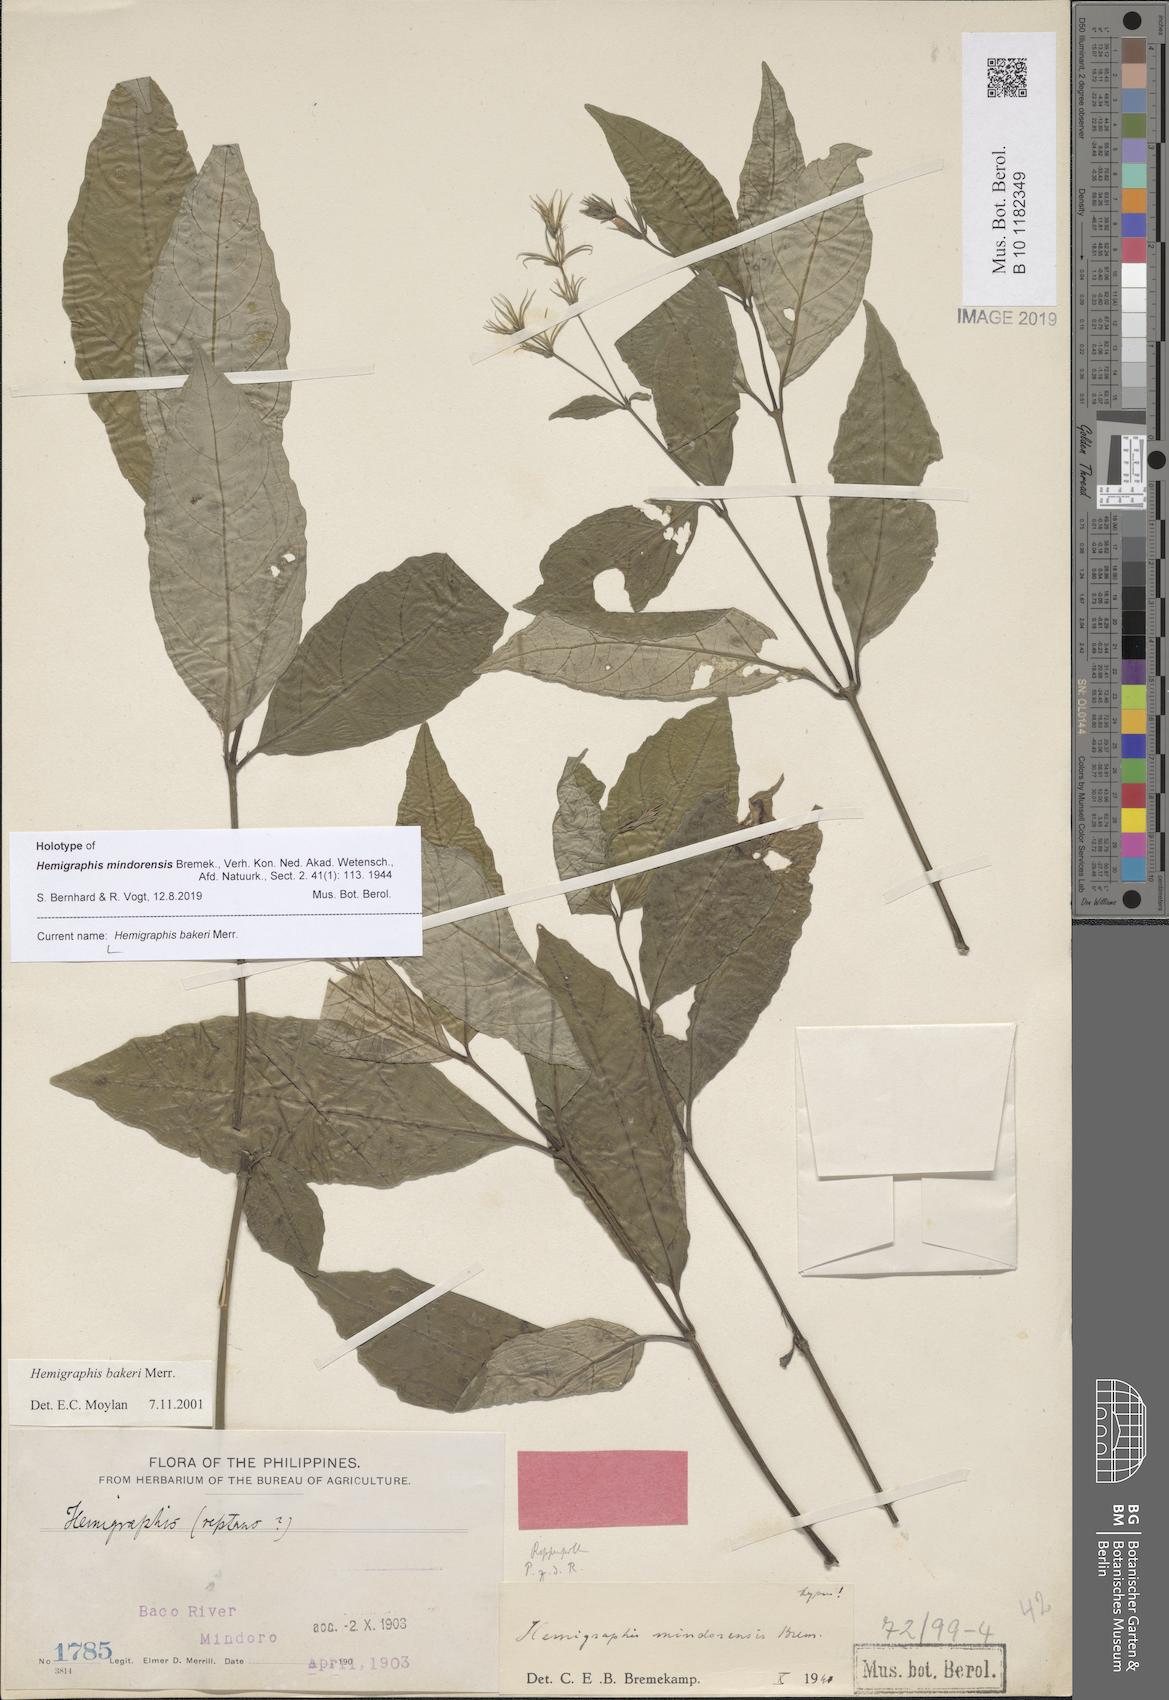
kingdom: Plantae
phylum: Tracheophyta
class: Magnoliopsida
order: Lamiales
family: Acanthaceae
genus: Strobilanthes
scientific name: Strobilanthes bakeri
